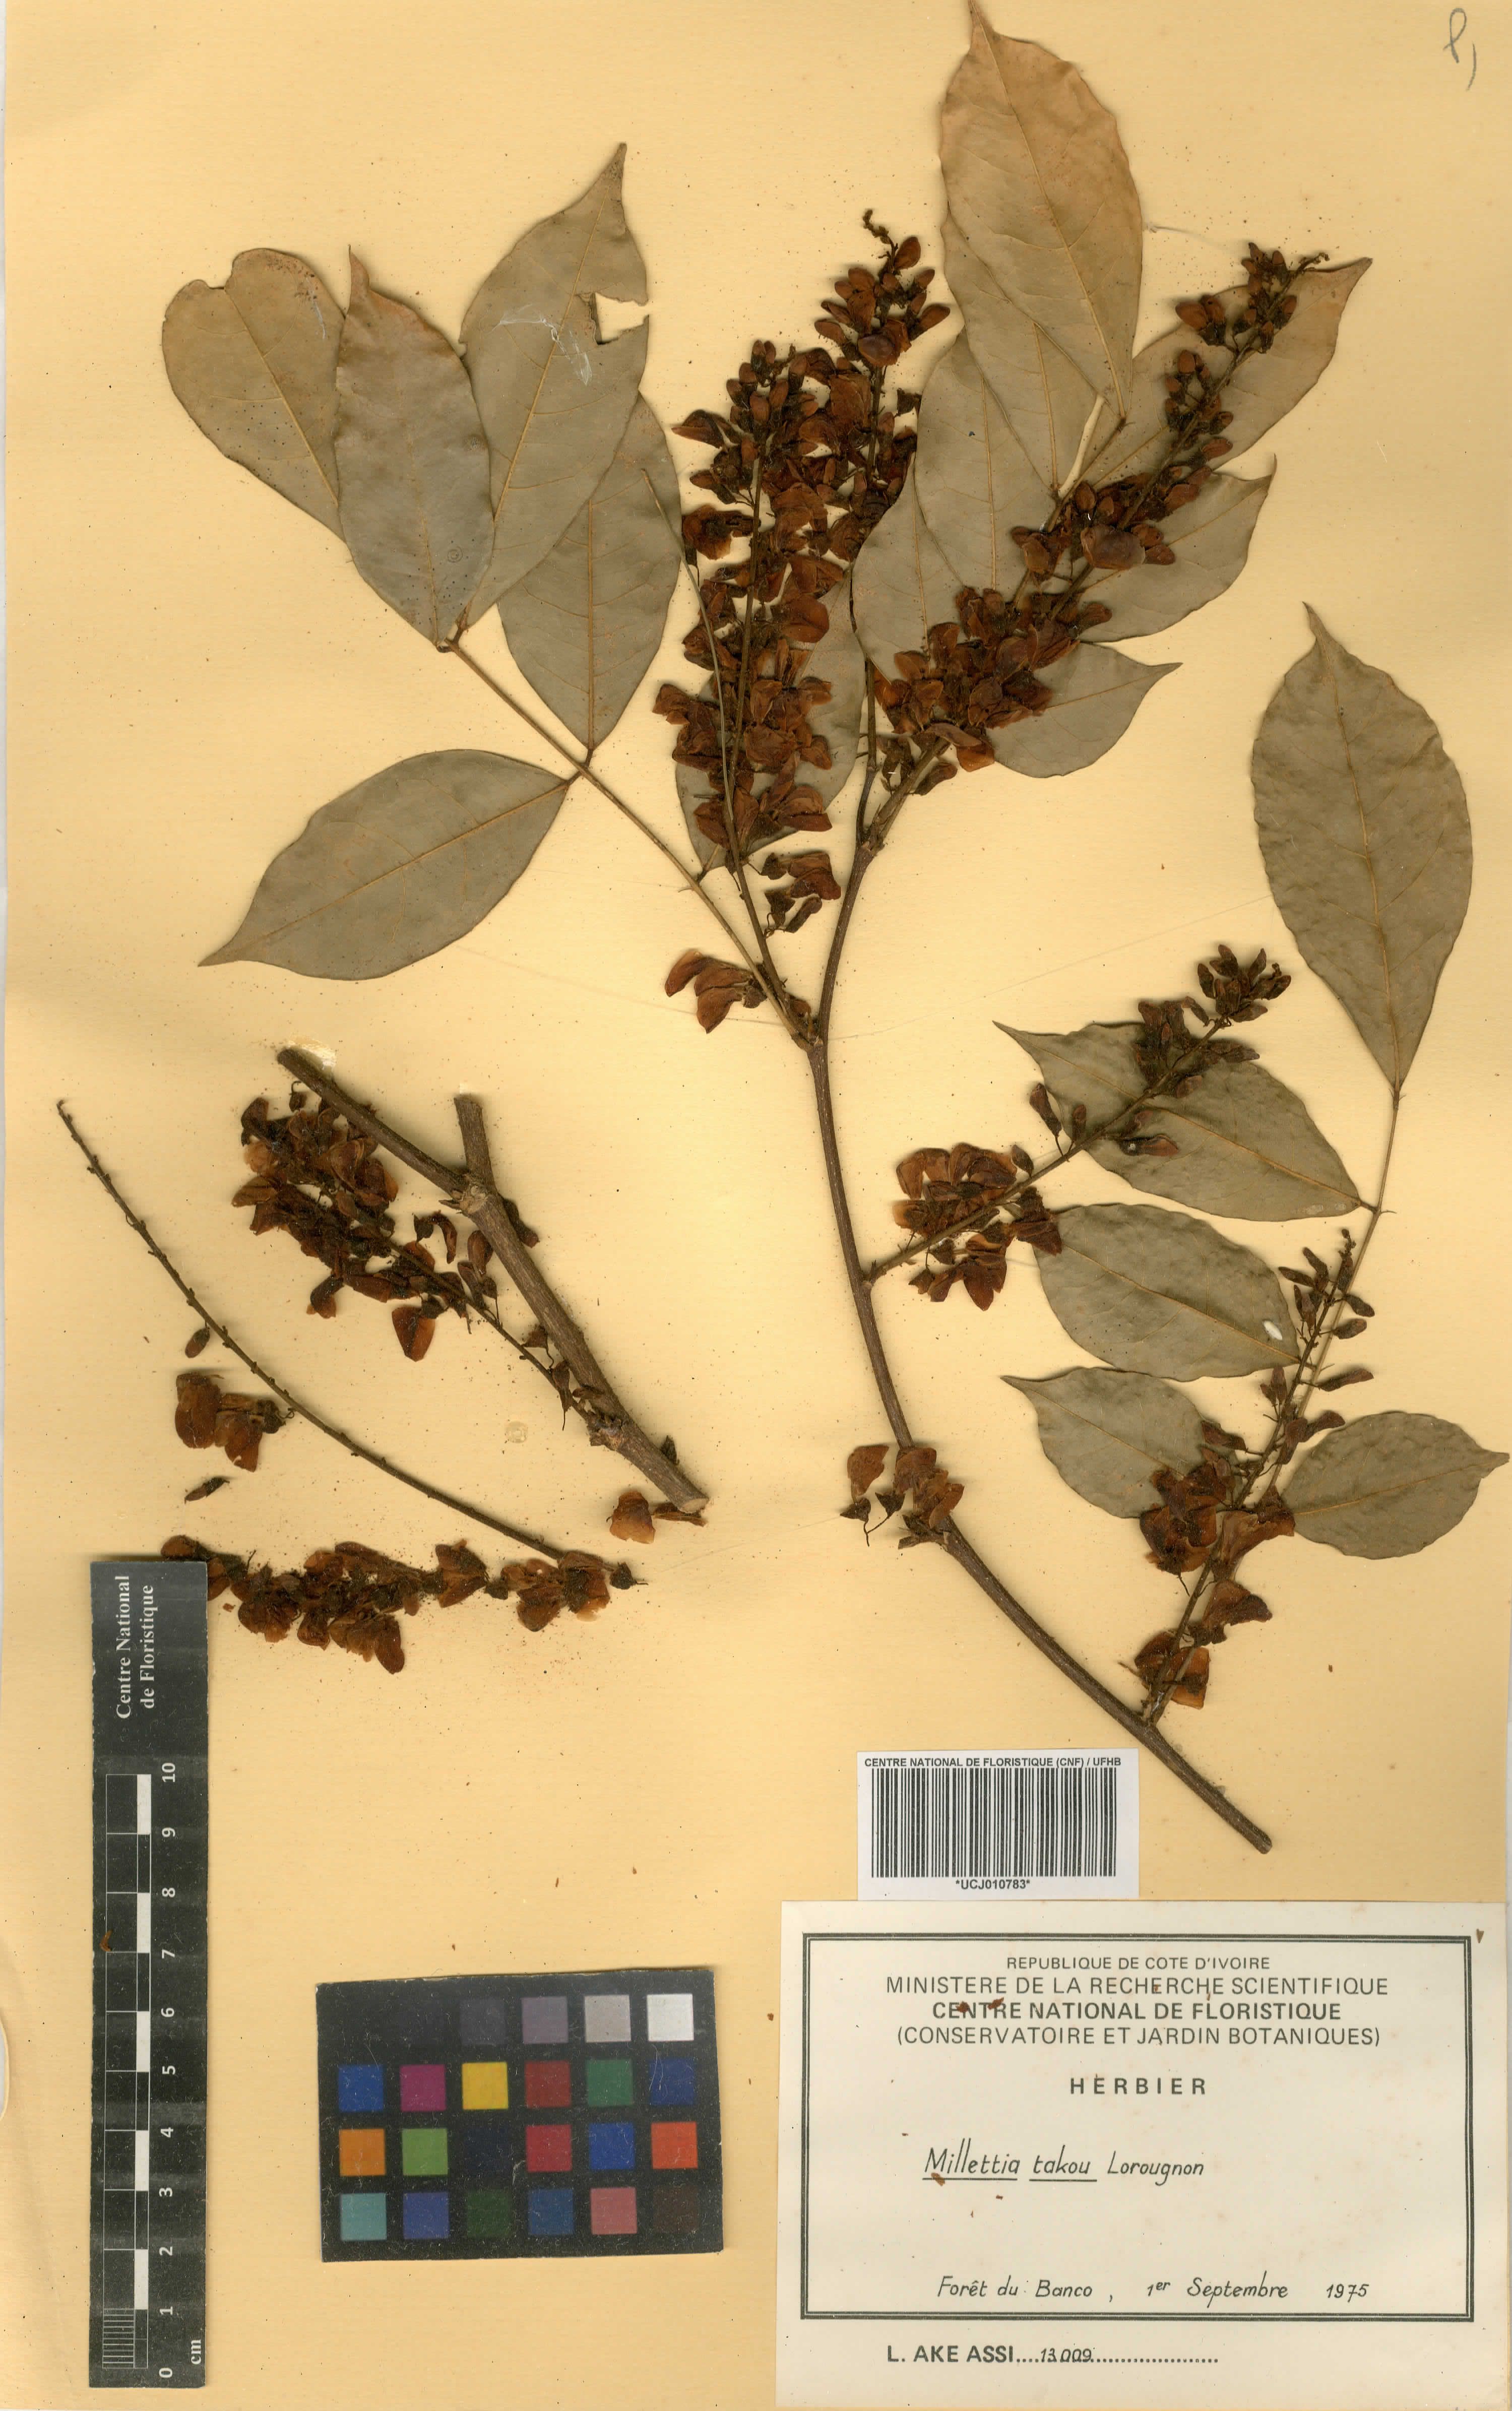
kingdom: Plantae
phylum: Tracheophyta
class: Magnoliopsida
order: Fabales
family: Fabaceae
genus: Millettia
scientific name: Millettia takou
